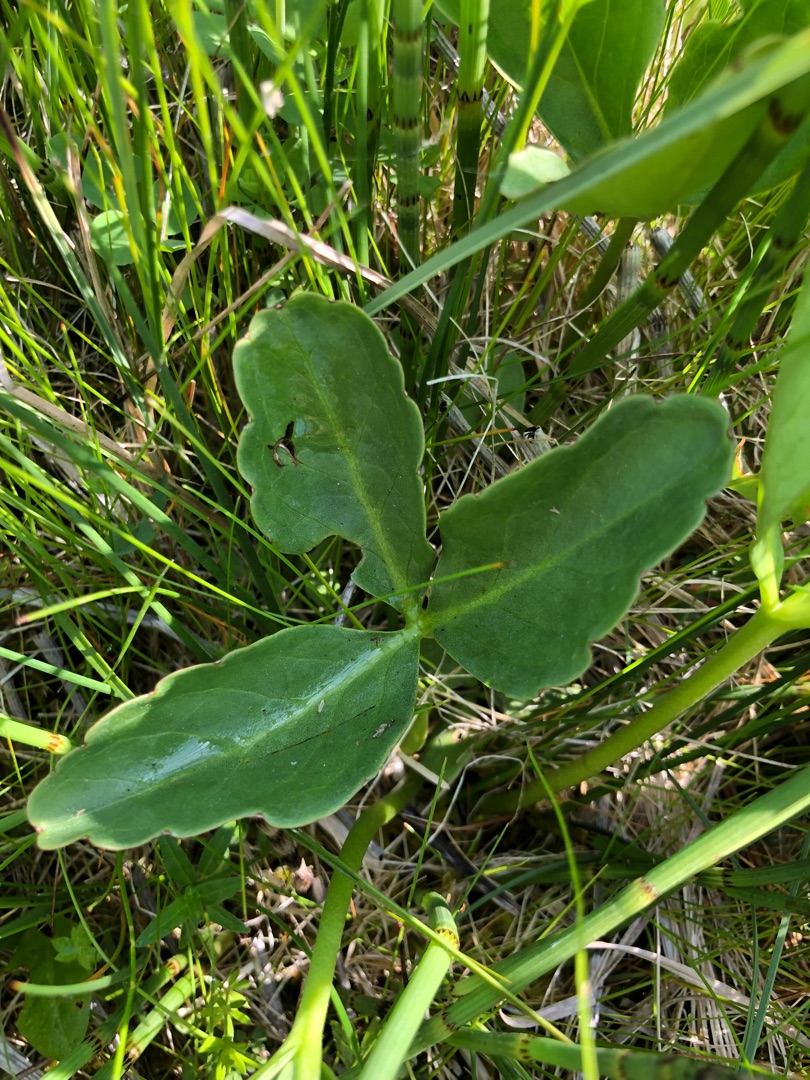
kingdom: Plantae
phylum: Tracheophyta
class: Magnoliopsida
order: Asterales
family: Menyanthaceae
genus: Menyanthes
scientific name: Menyanthes trifoliata
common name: Bukkeblad
